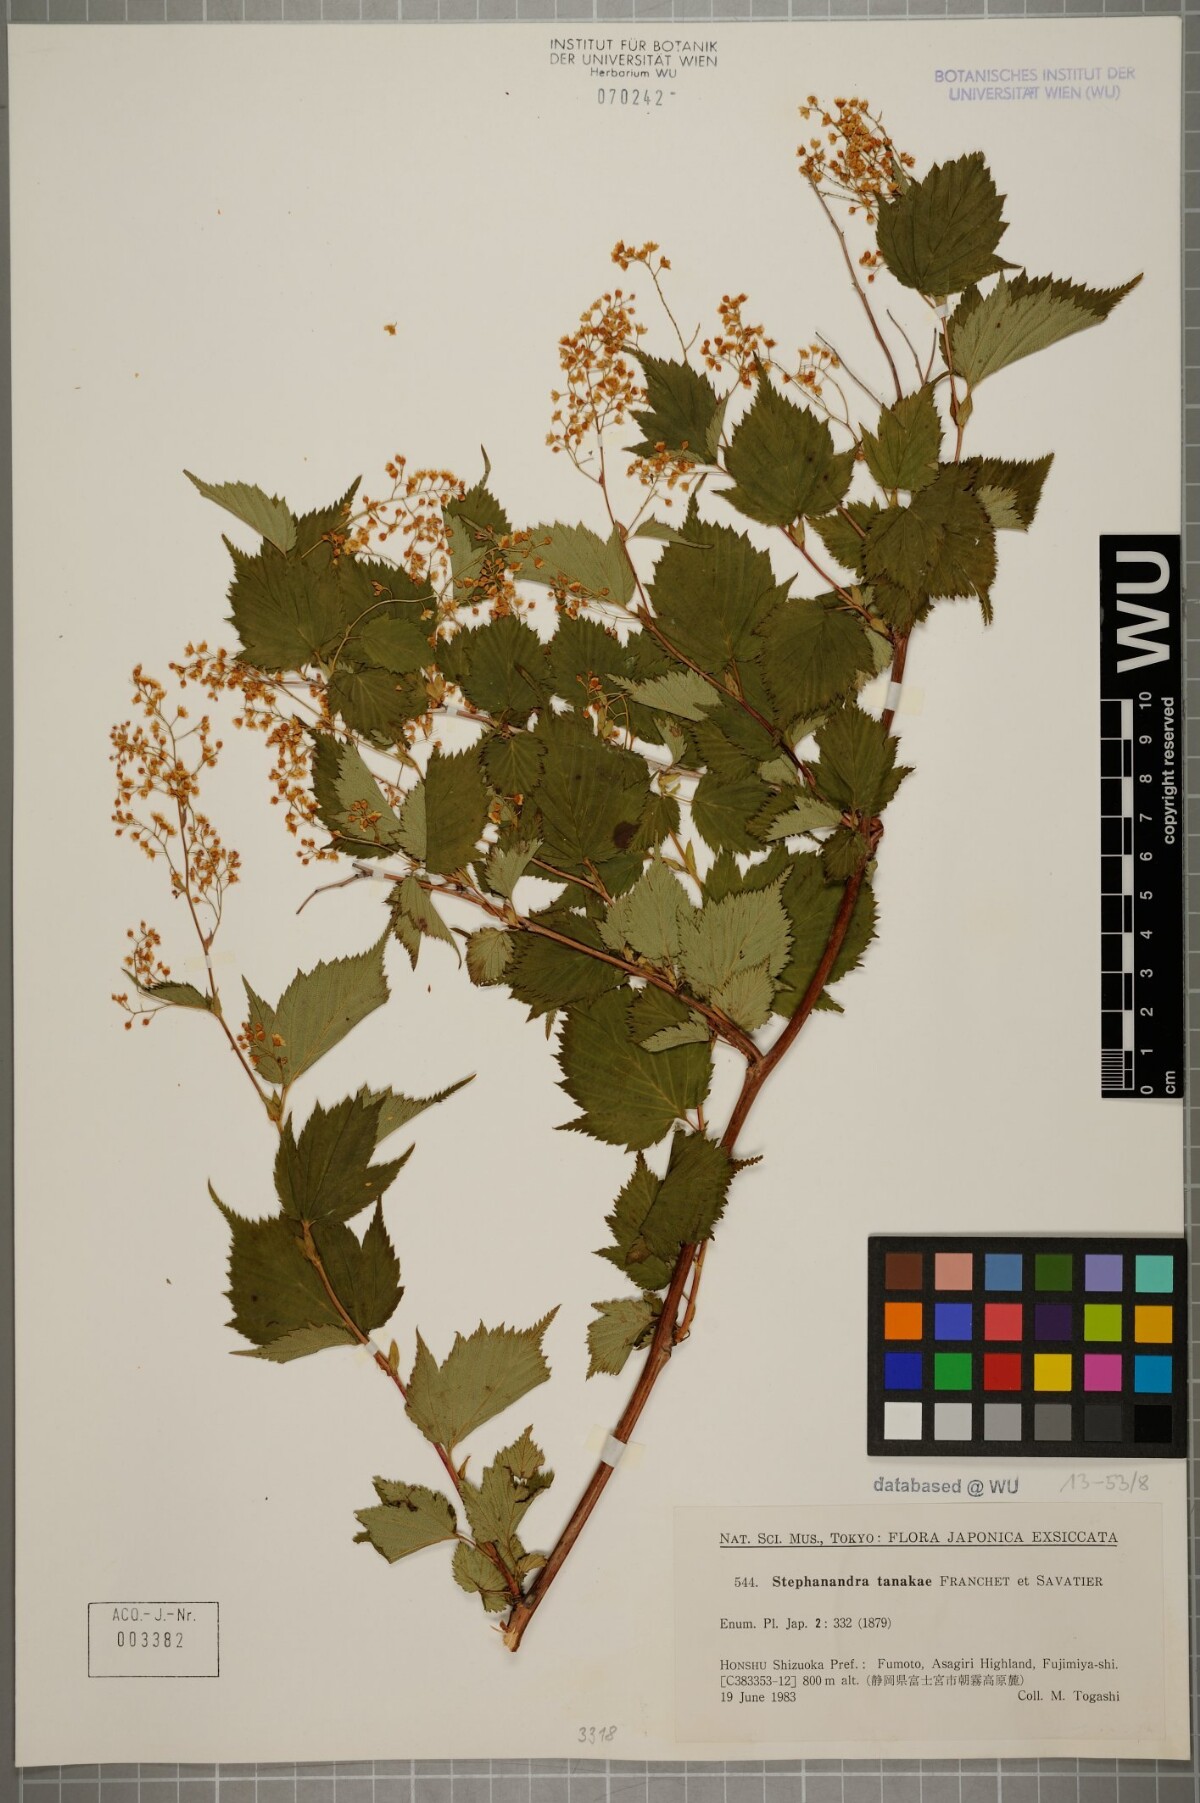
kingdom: Plantae
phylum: Tracheophyta
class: Magnoliopsida
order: Rosales
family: Rosaceae
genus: Neillia
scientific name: Neillia tanakae
